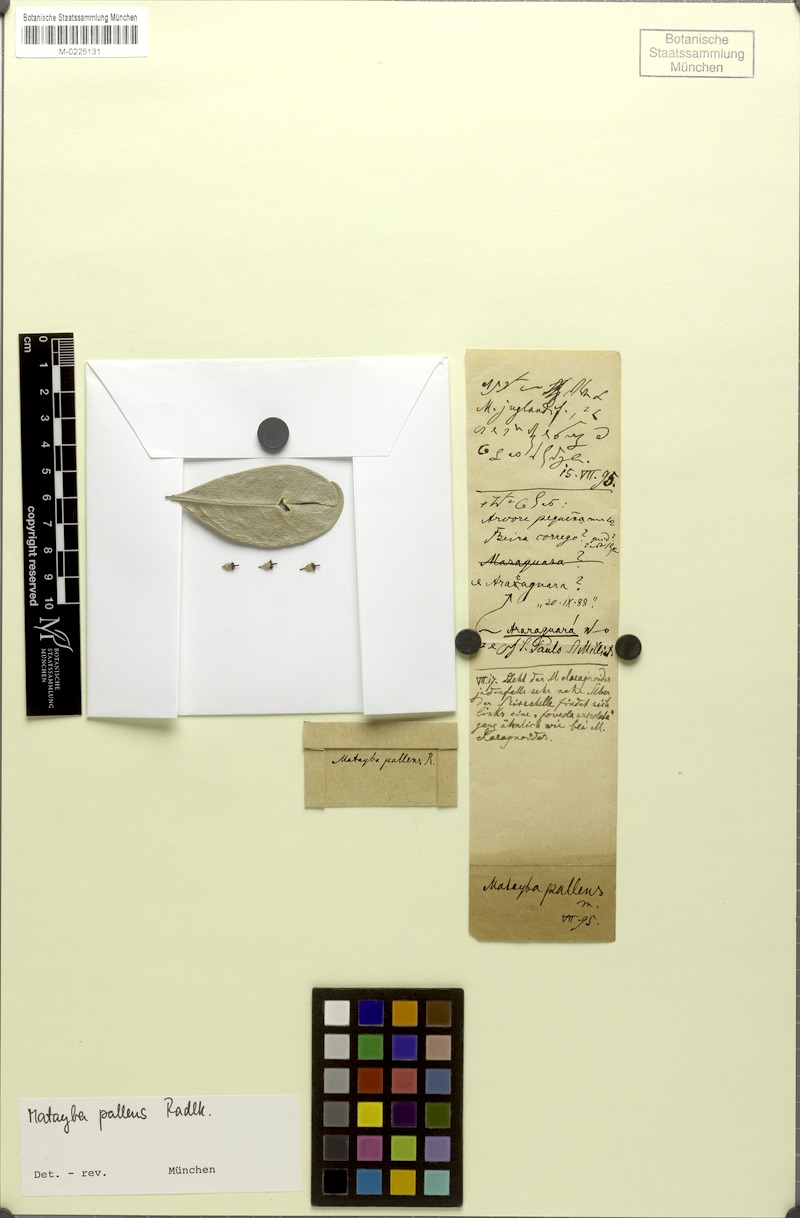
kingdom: Plantae
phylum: Tracheophyta
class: Magnoliopsida
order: Sapindales
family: Sapindaceae
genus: Matayba
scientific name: Matayba pallens
